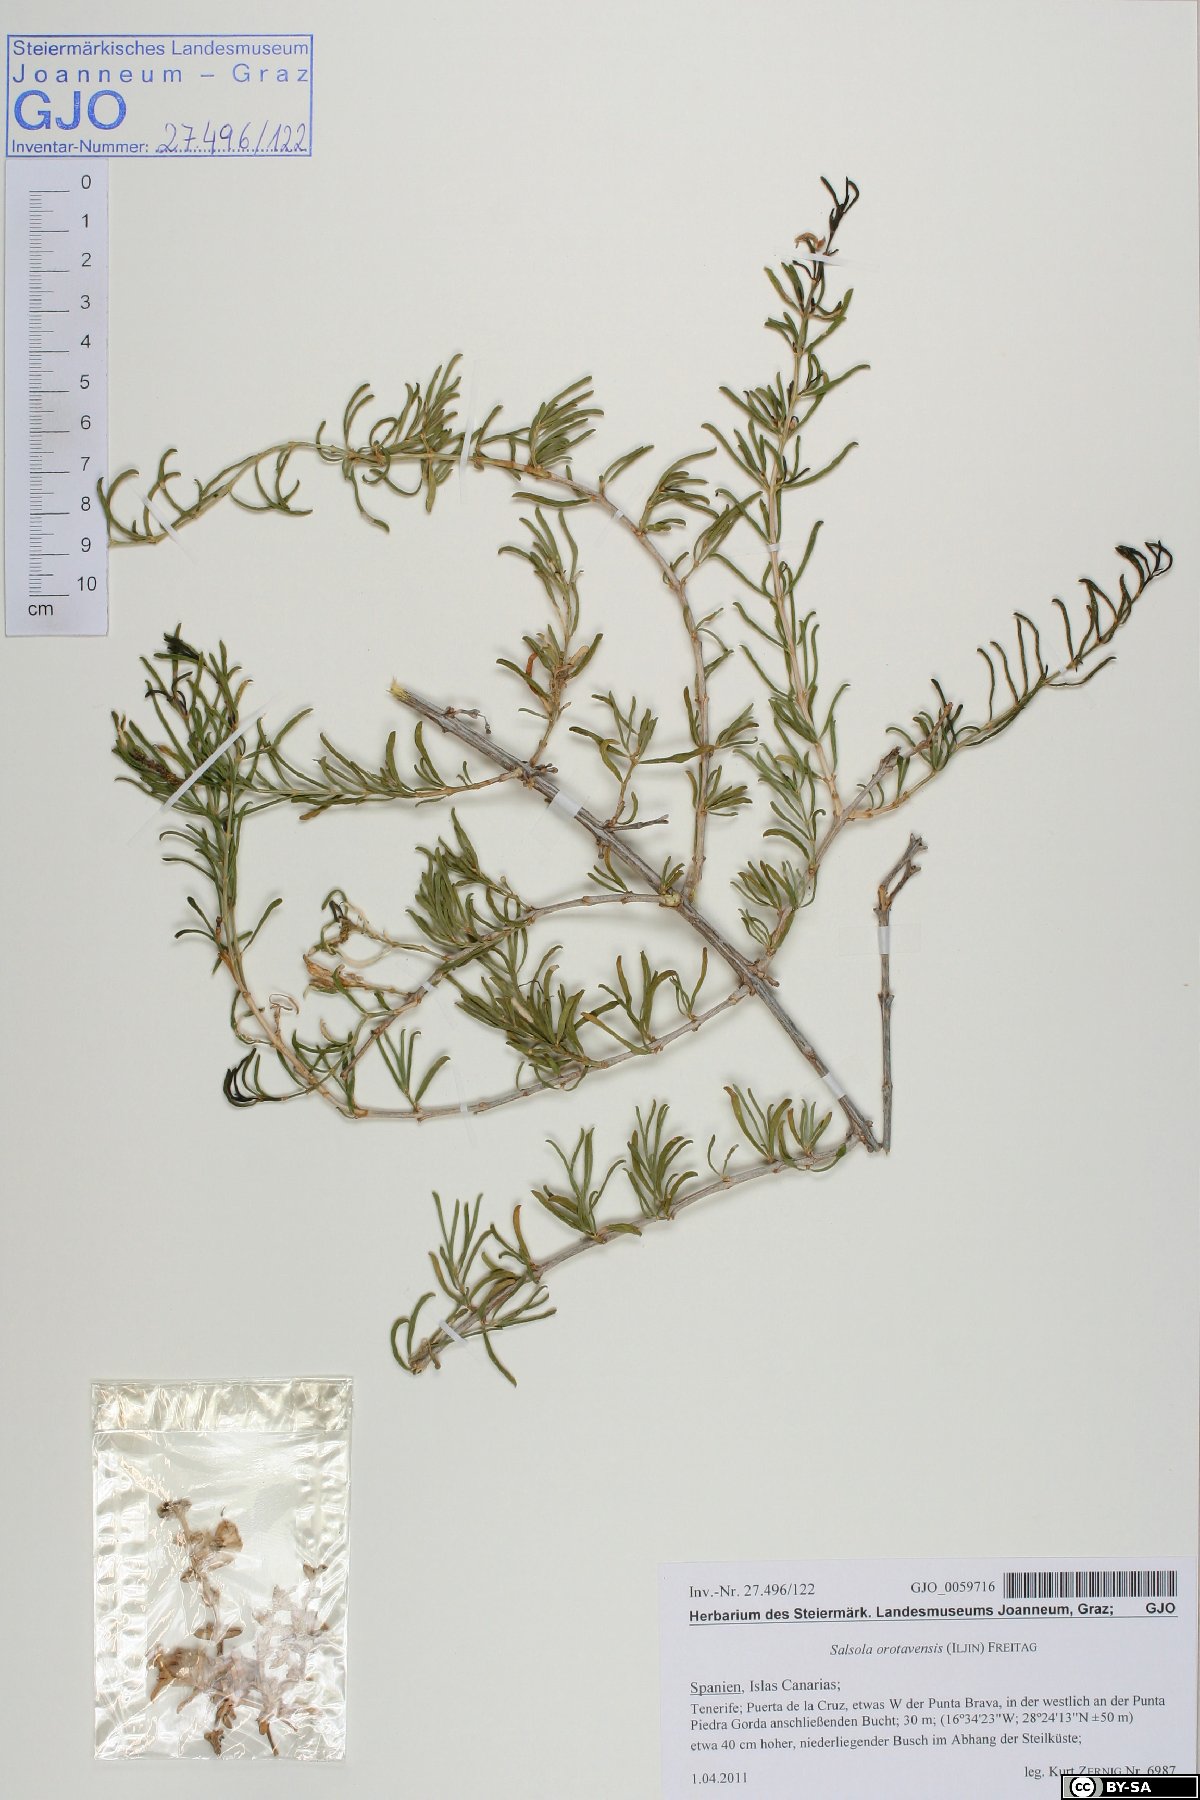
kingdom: Plantae
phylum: Tracheophyta
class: Magnoliopsida
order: Caryophyllales
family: Amaranthaceae
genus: Canarosalsola
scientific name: Canarosalsola divaricata
